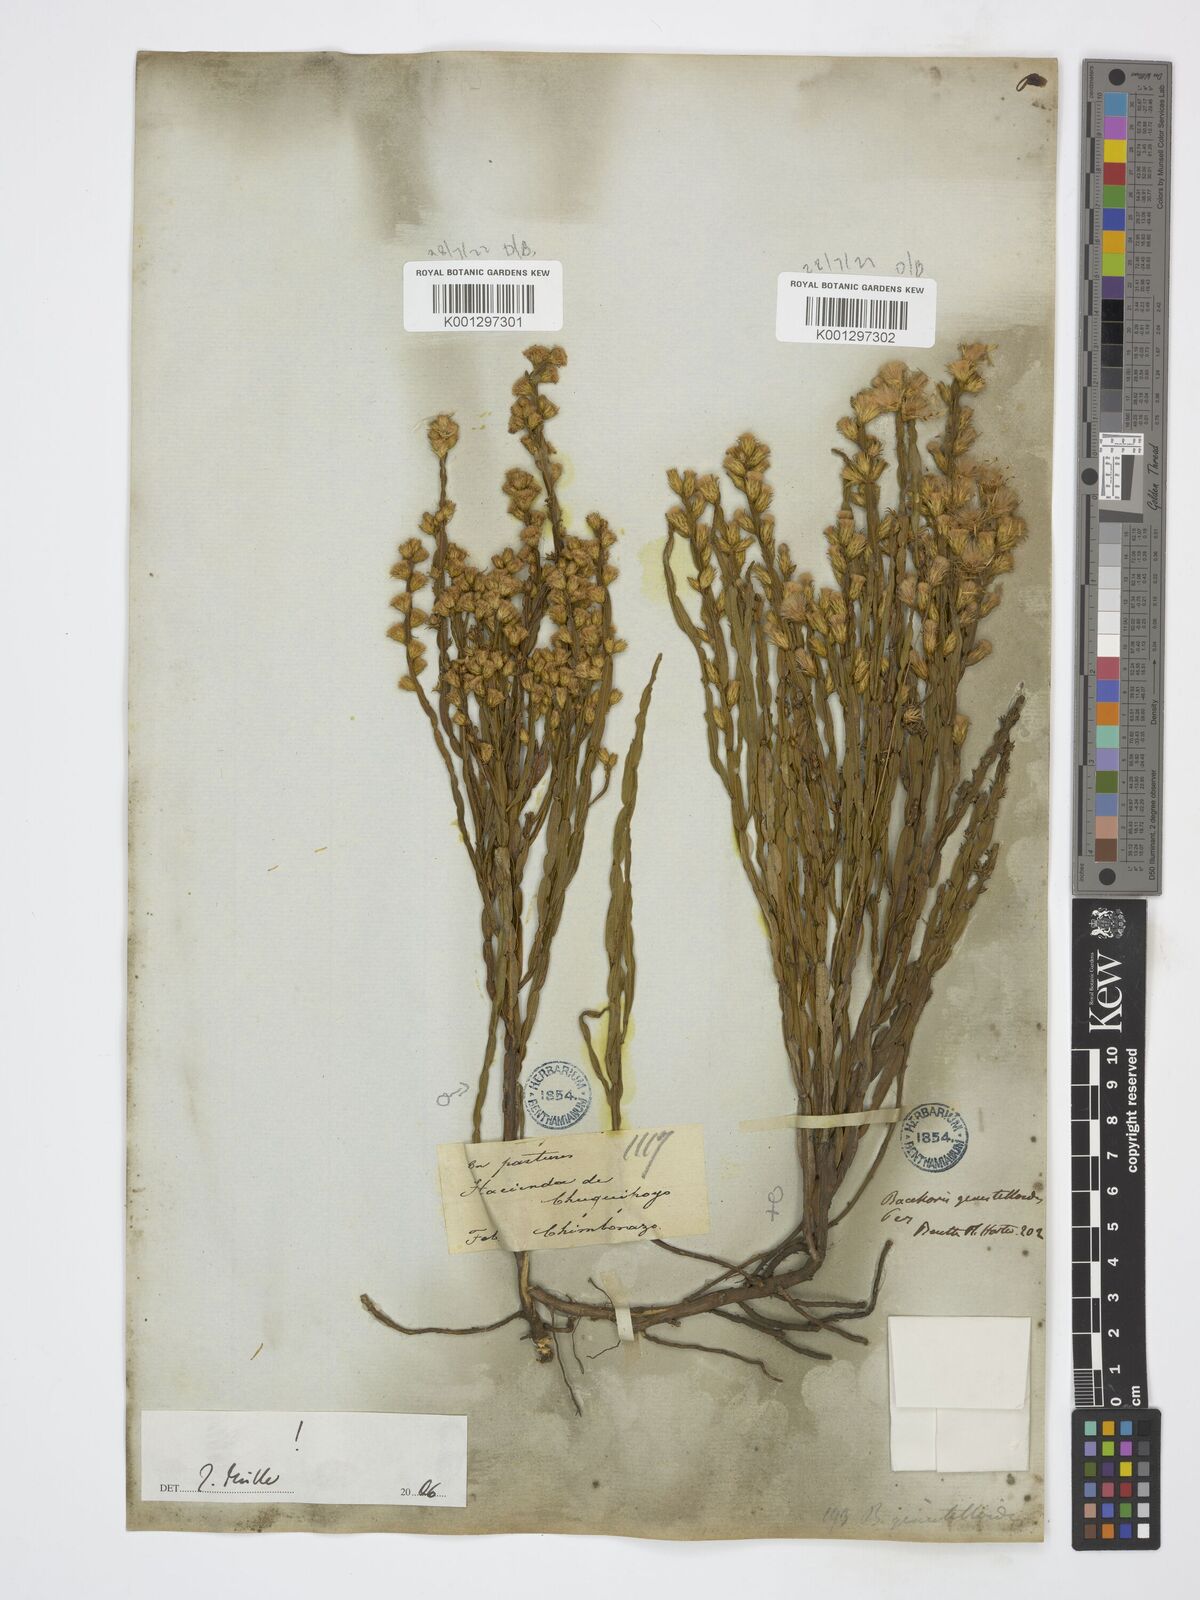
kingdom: Plantae
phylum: Tracheophyta
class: Magnoliopsida
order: Asterales
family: Asteraceae
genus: Baccharis
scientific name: Baccharis genistelloides
